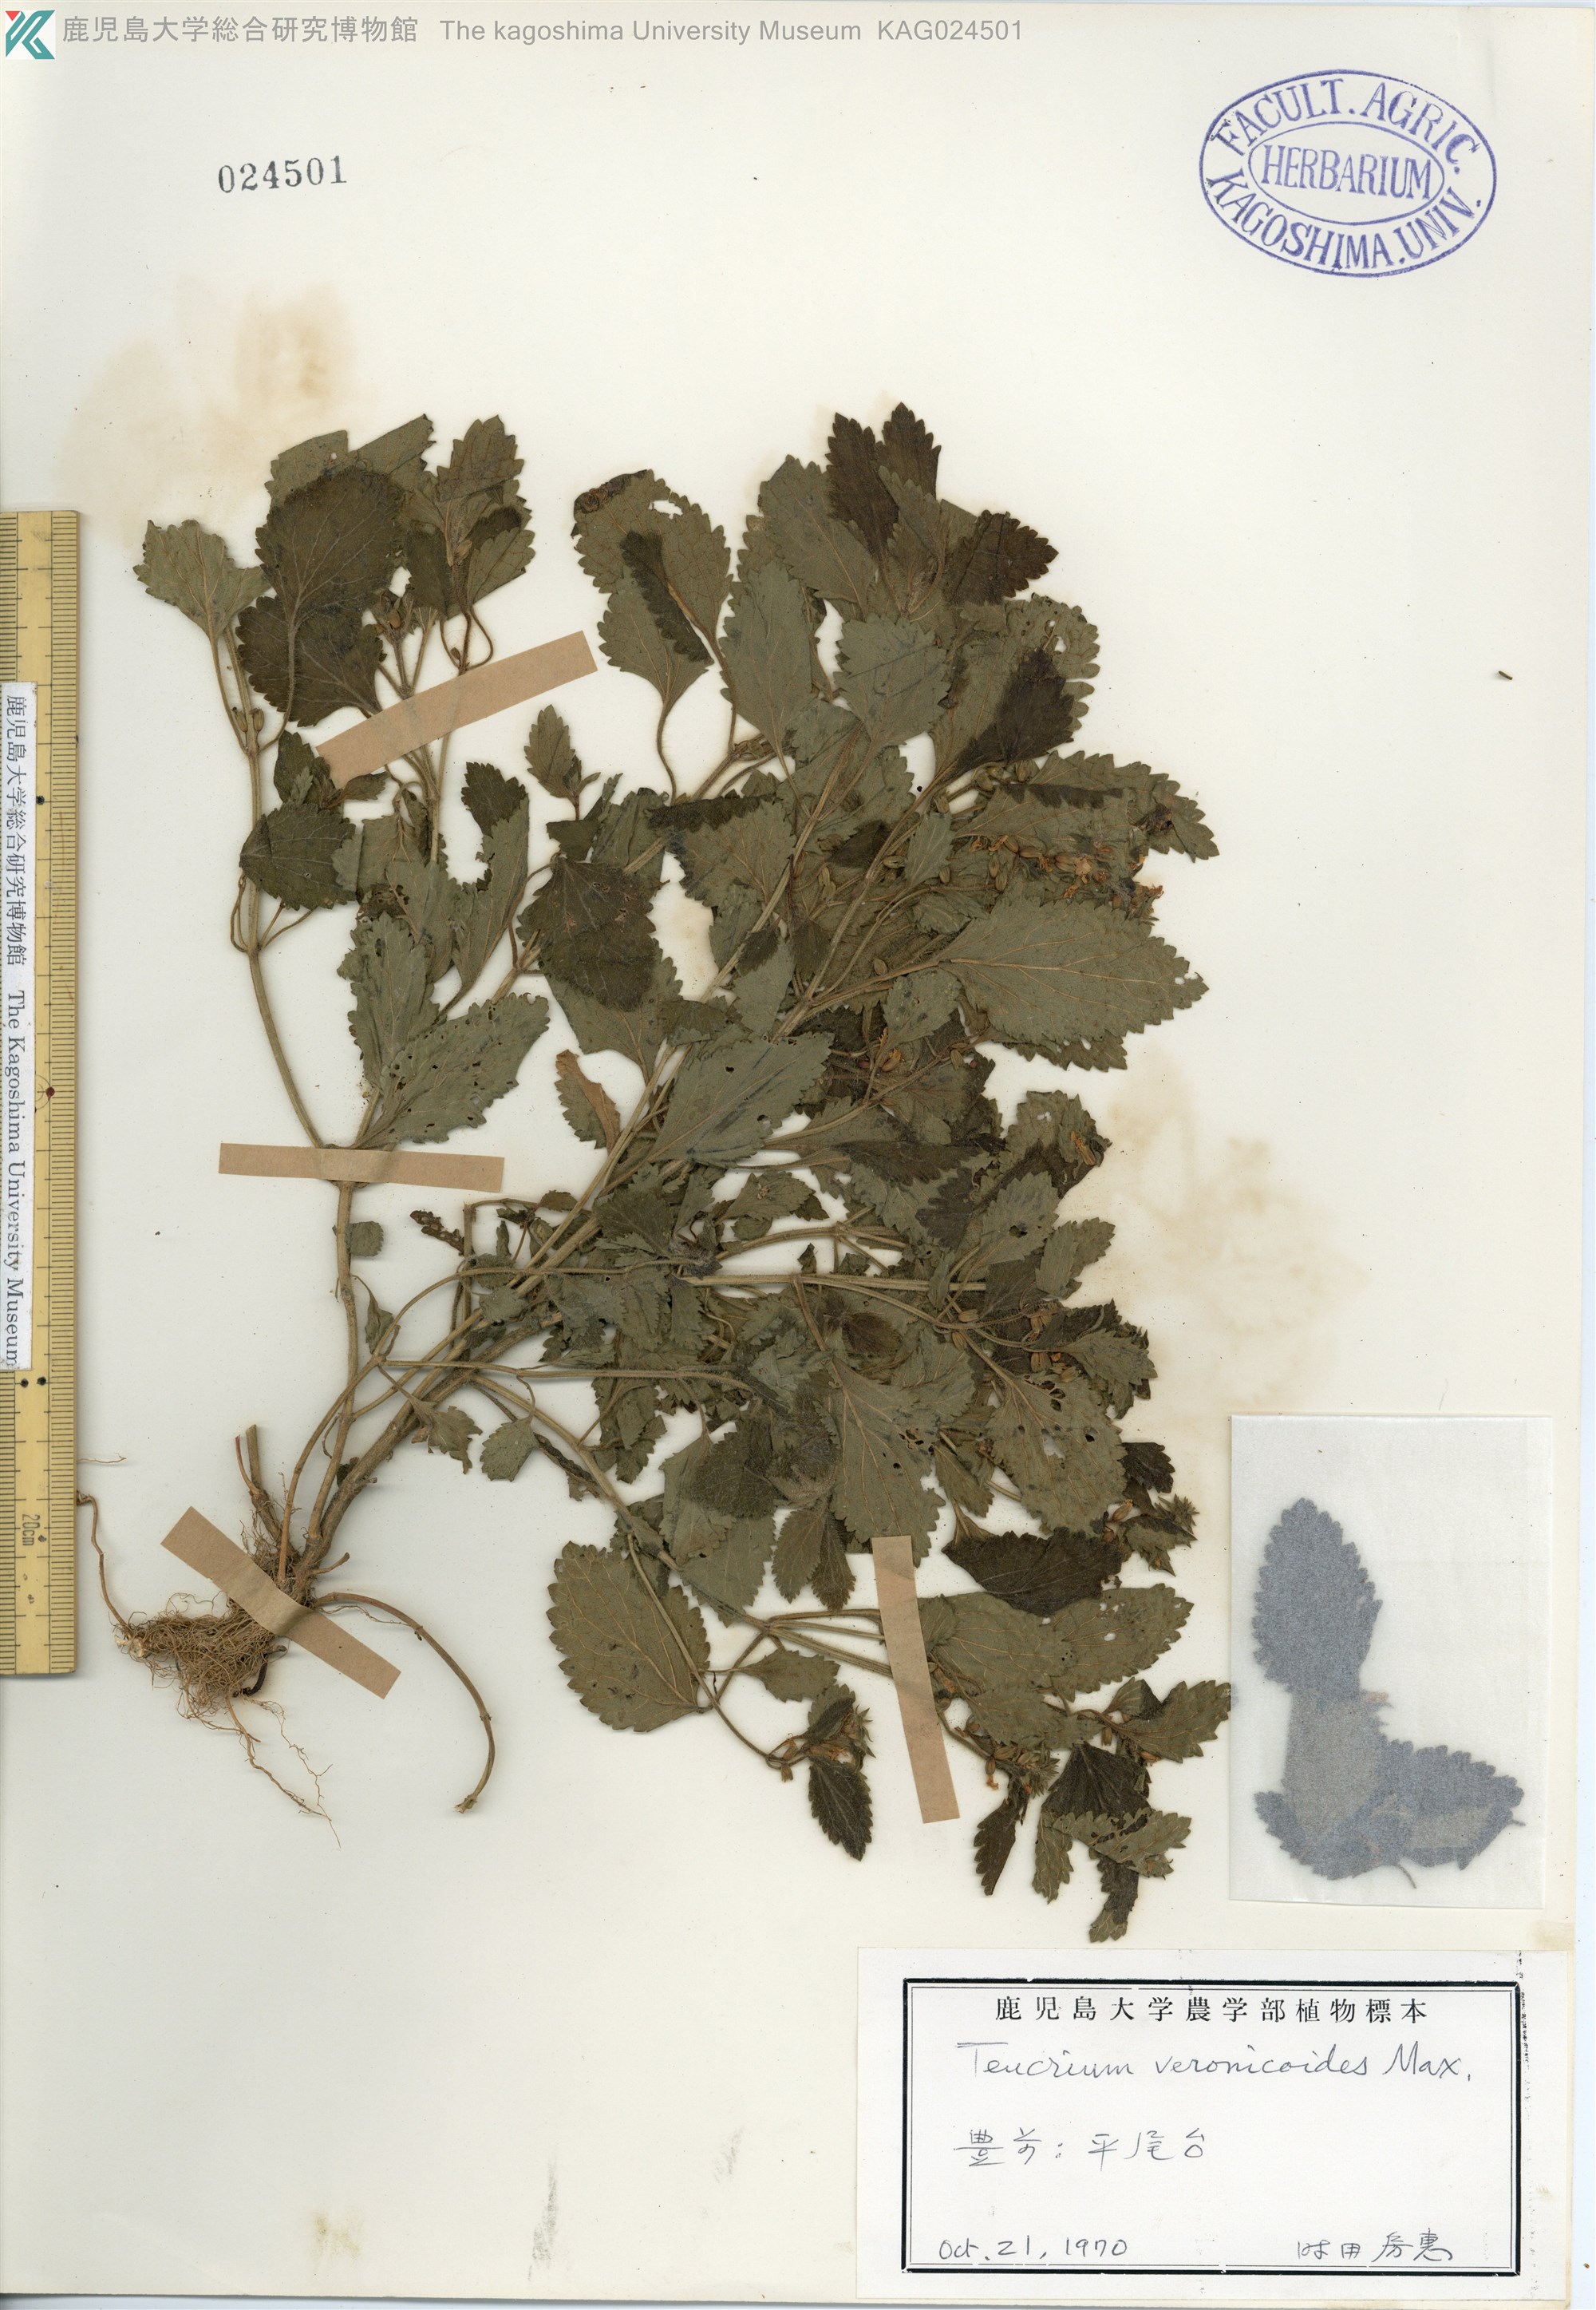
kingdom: Plantae
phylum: Tracheophyta
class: Magnoliopsida
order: Lamiales
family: Lamiaceae
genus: Teucrium
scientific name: Teucrium veronicoides
